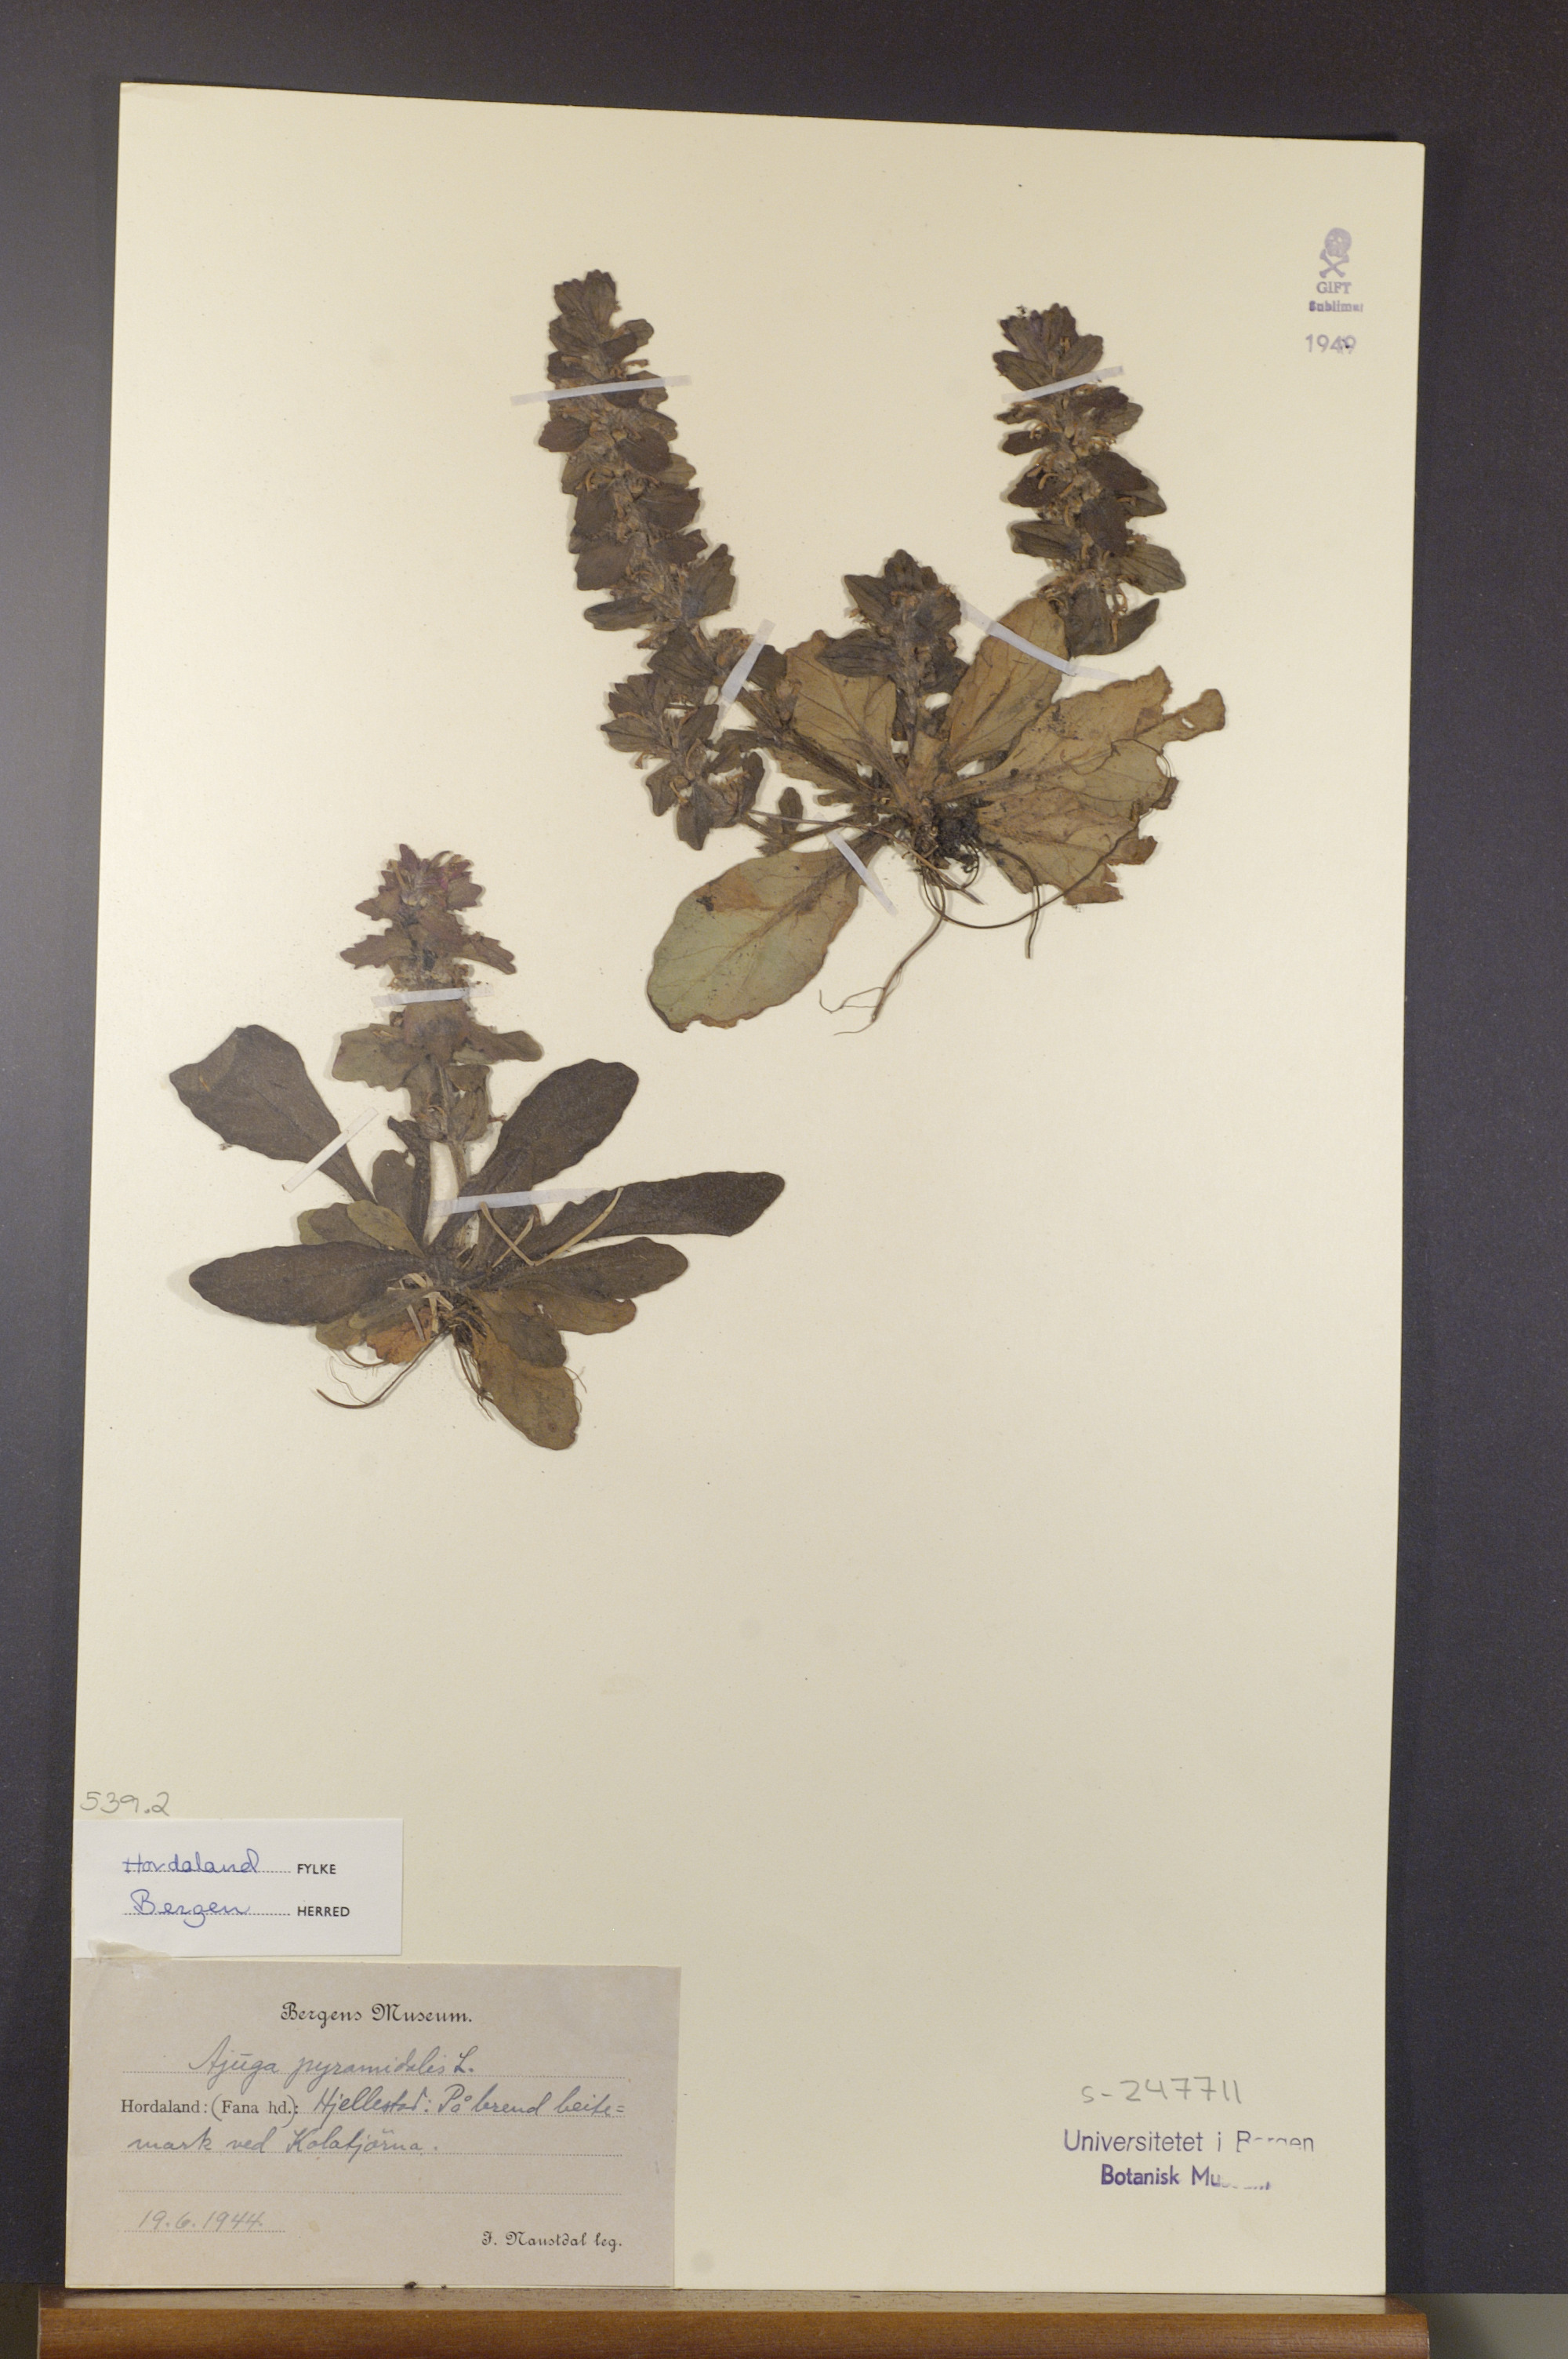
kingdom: Plantae
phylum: Tracheophyta
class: Magnoliopsida
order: Lamiales
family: Lamiaceae
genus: Ajuga
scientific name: Ajuga pyramidalis
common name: Pyramid bugle
